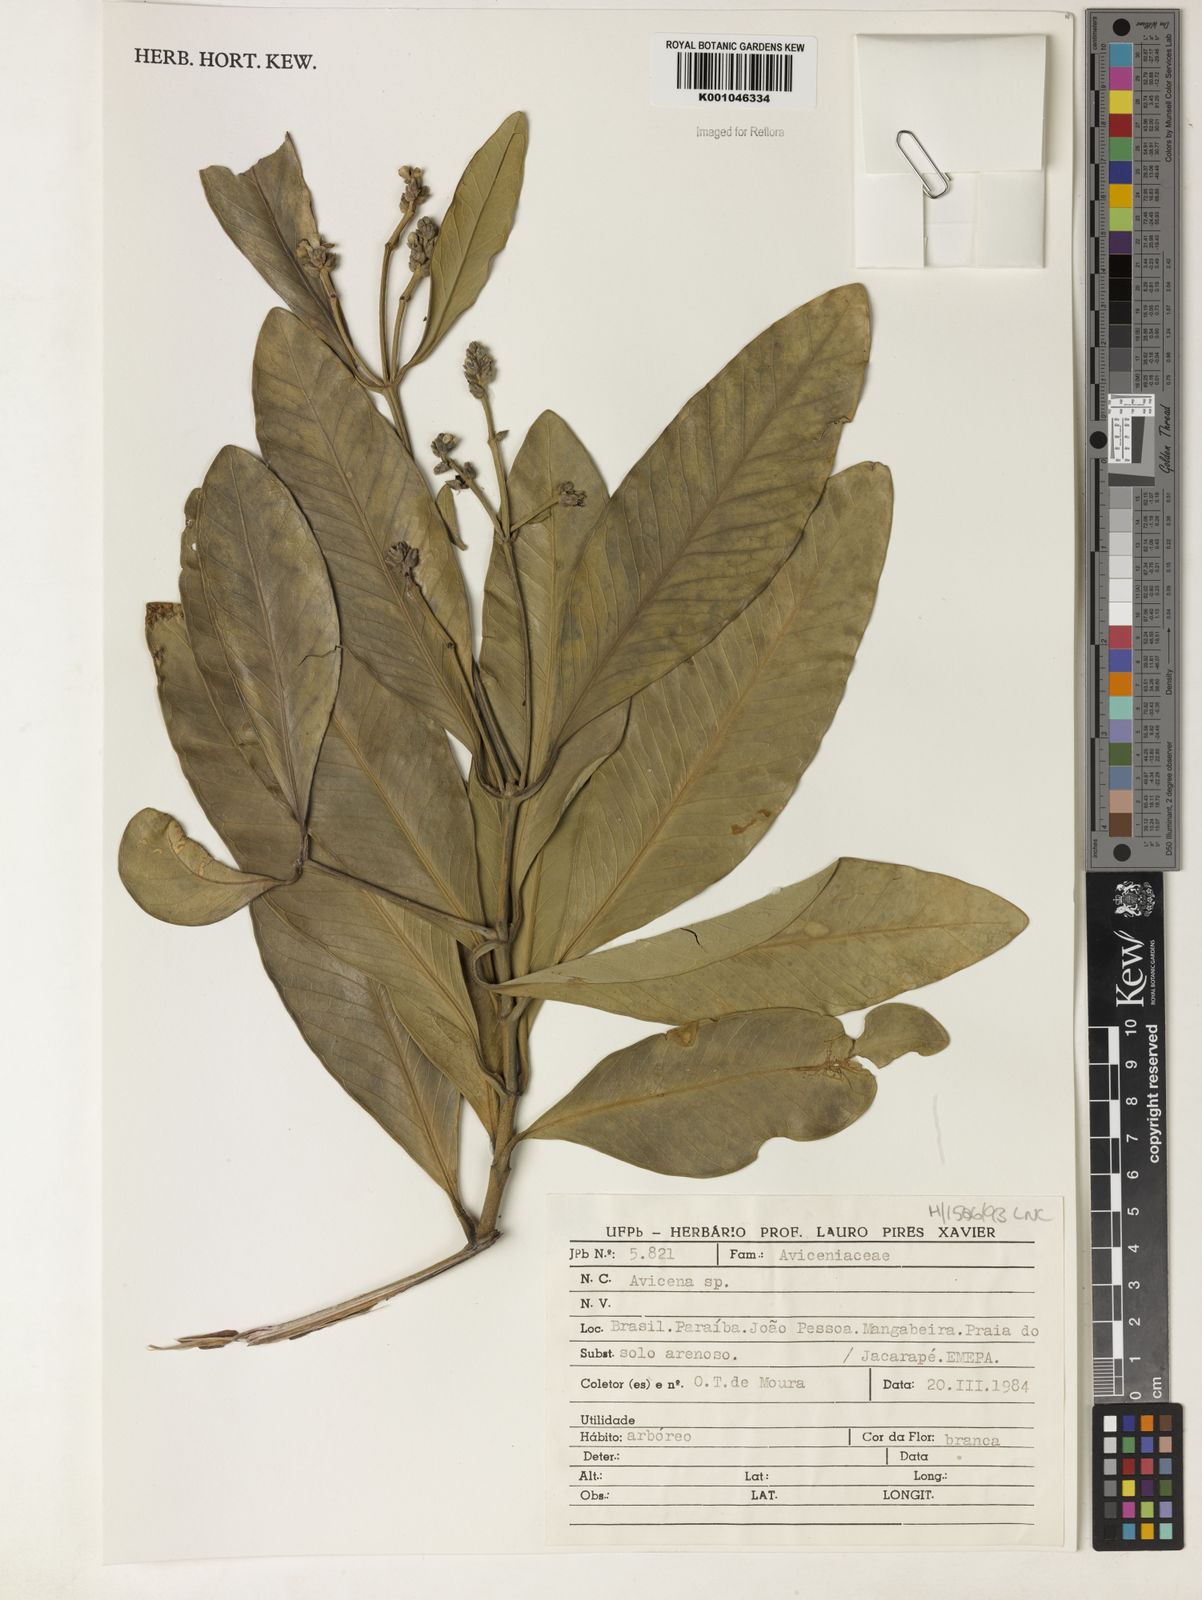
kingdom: Plantae
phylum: Tracheophyta
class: Magnoliopsida
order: Lamiales
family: Acanthaceae
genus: Avicennia
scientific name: Avicennia
